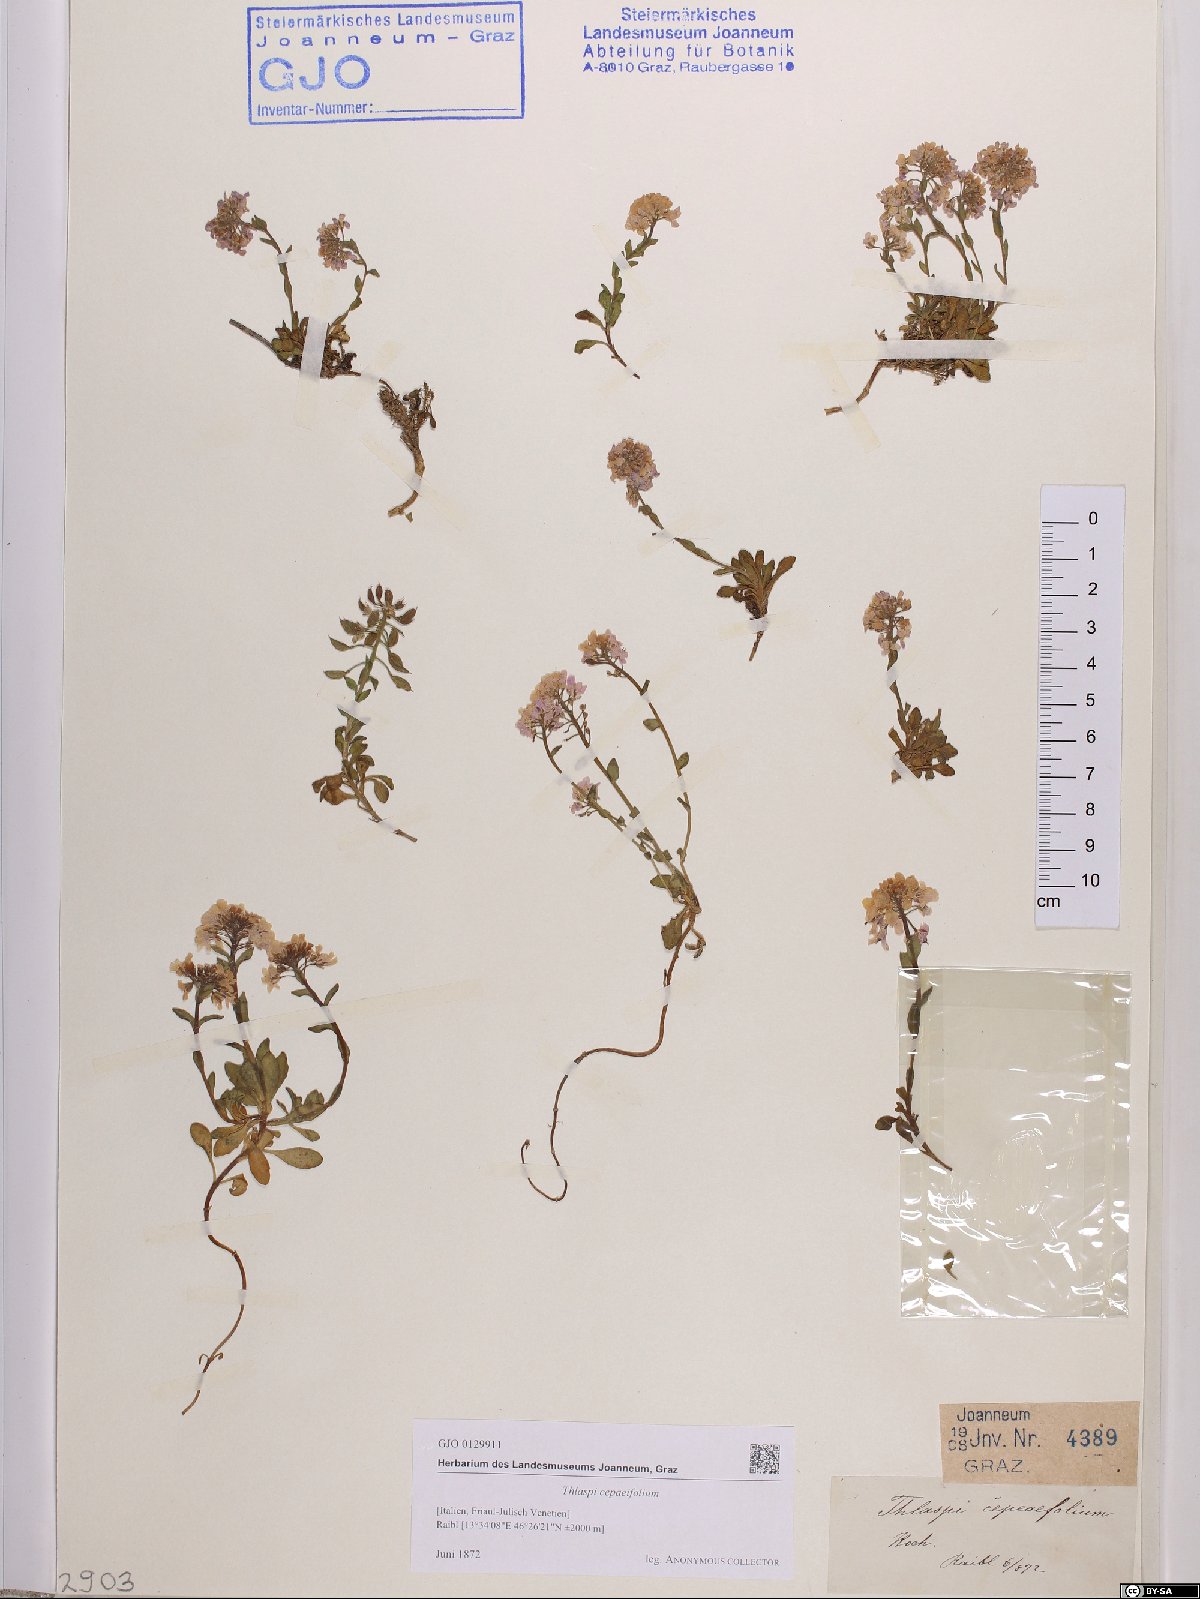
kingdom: Plantae
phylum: Tracheophyta
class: Magnoliopsida
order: Brassicales
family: Brassicaceae
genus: Noccaea
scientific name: Noccaea cepaeifolia
